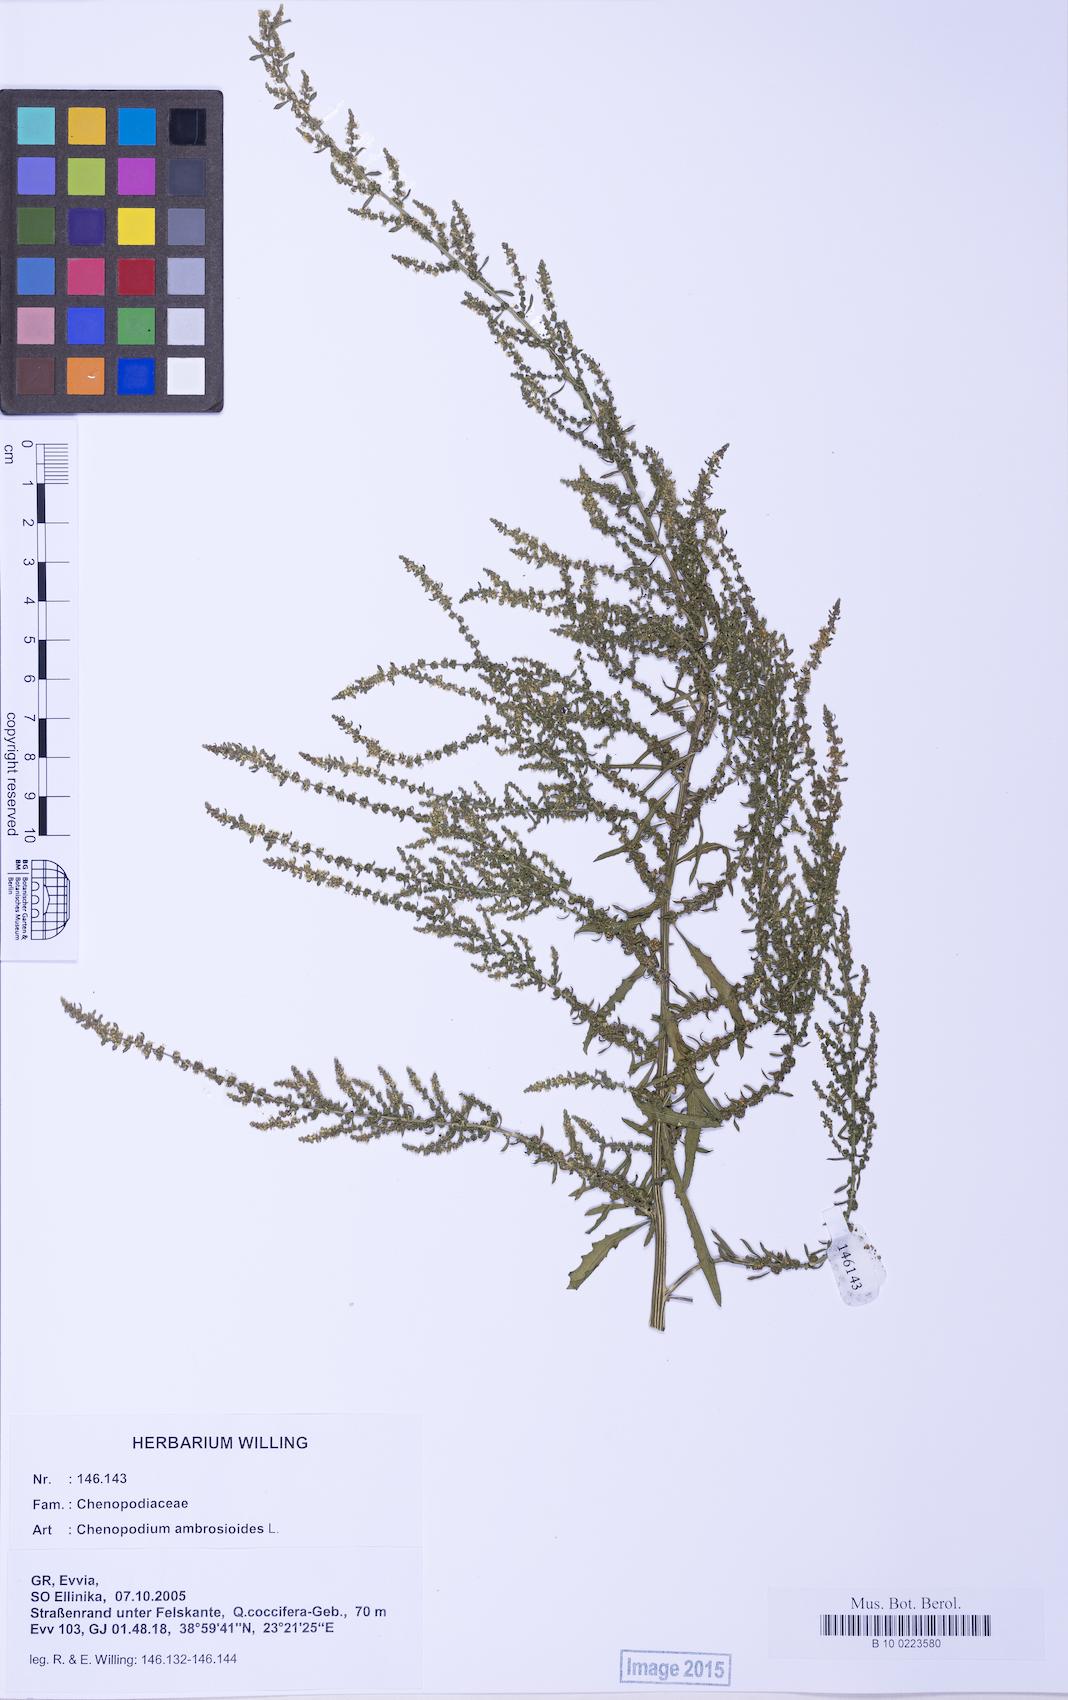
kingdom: Plantae
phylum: Tracheophyta
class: Magnoliopsida
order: Caryophyllales
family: Amaranthaceae
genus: Dysphania
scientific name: Dysphania ambrosioides
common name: Wormseed
